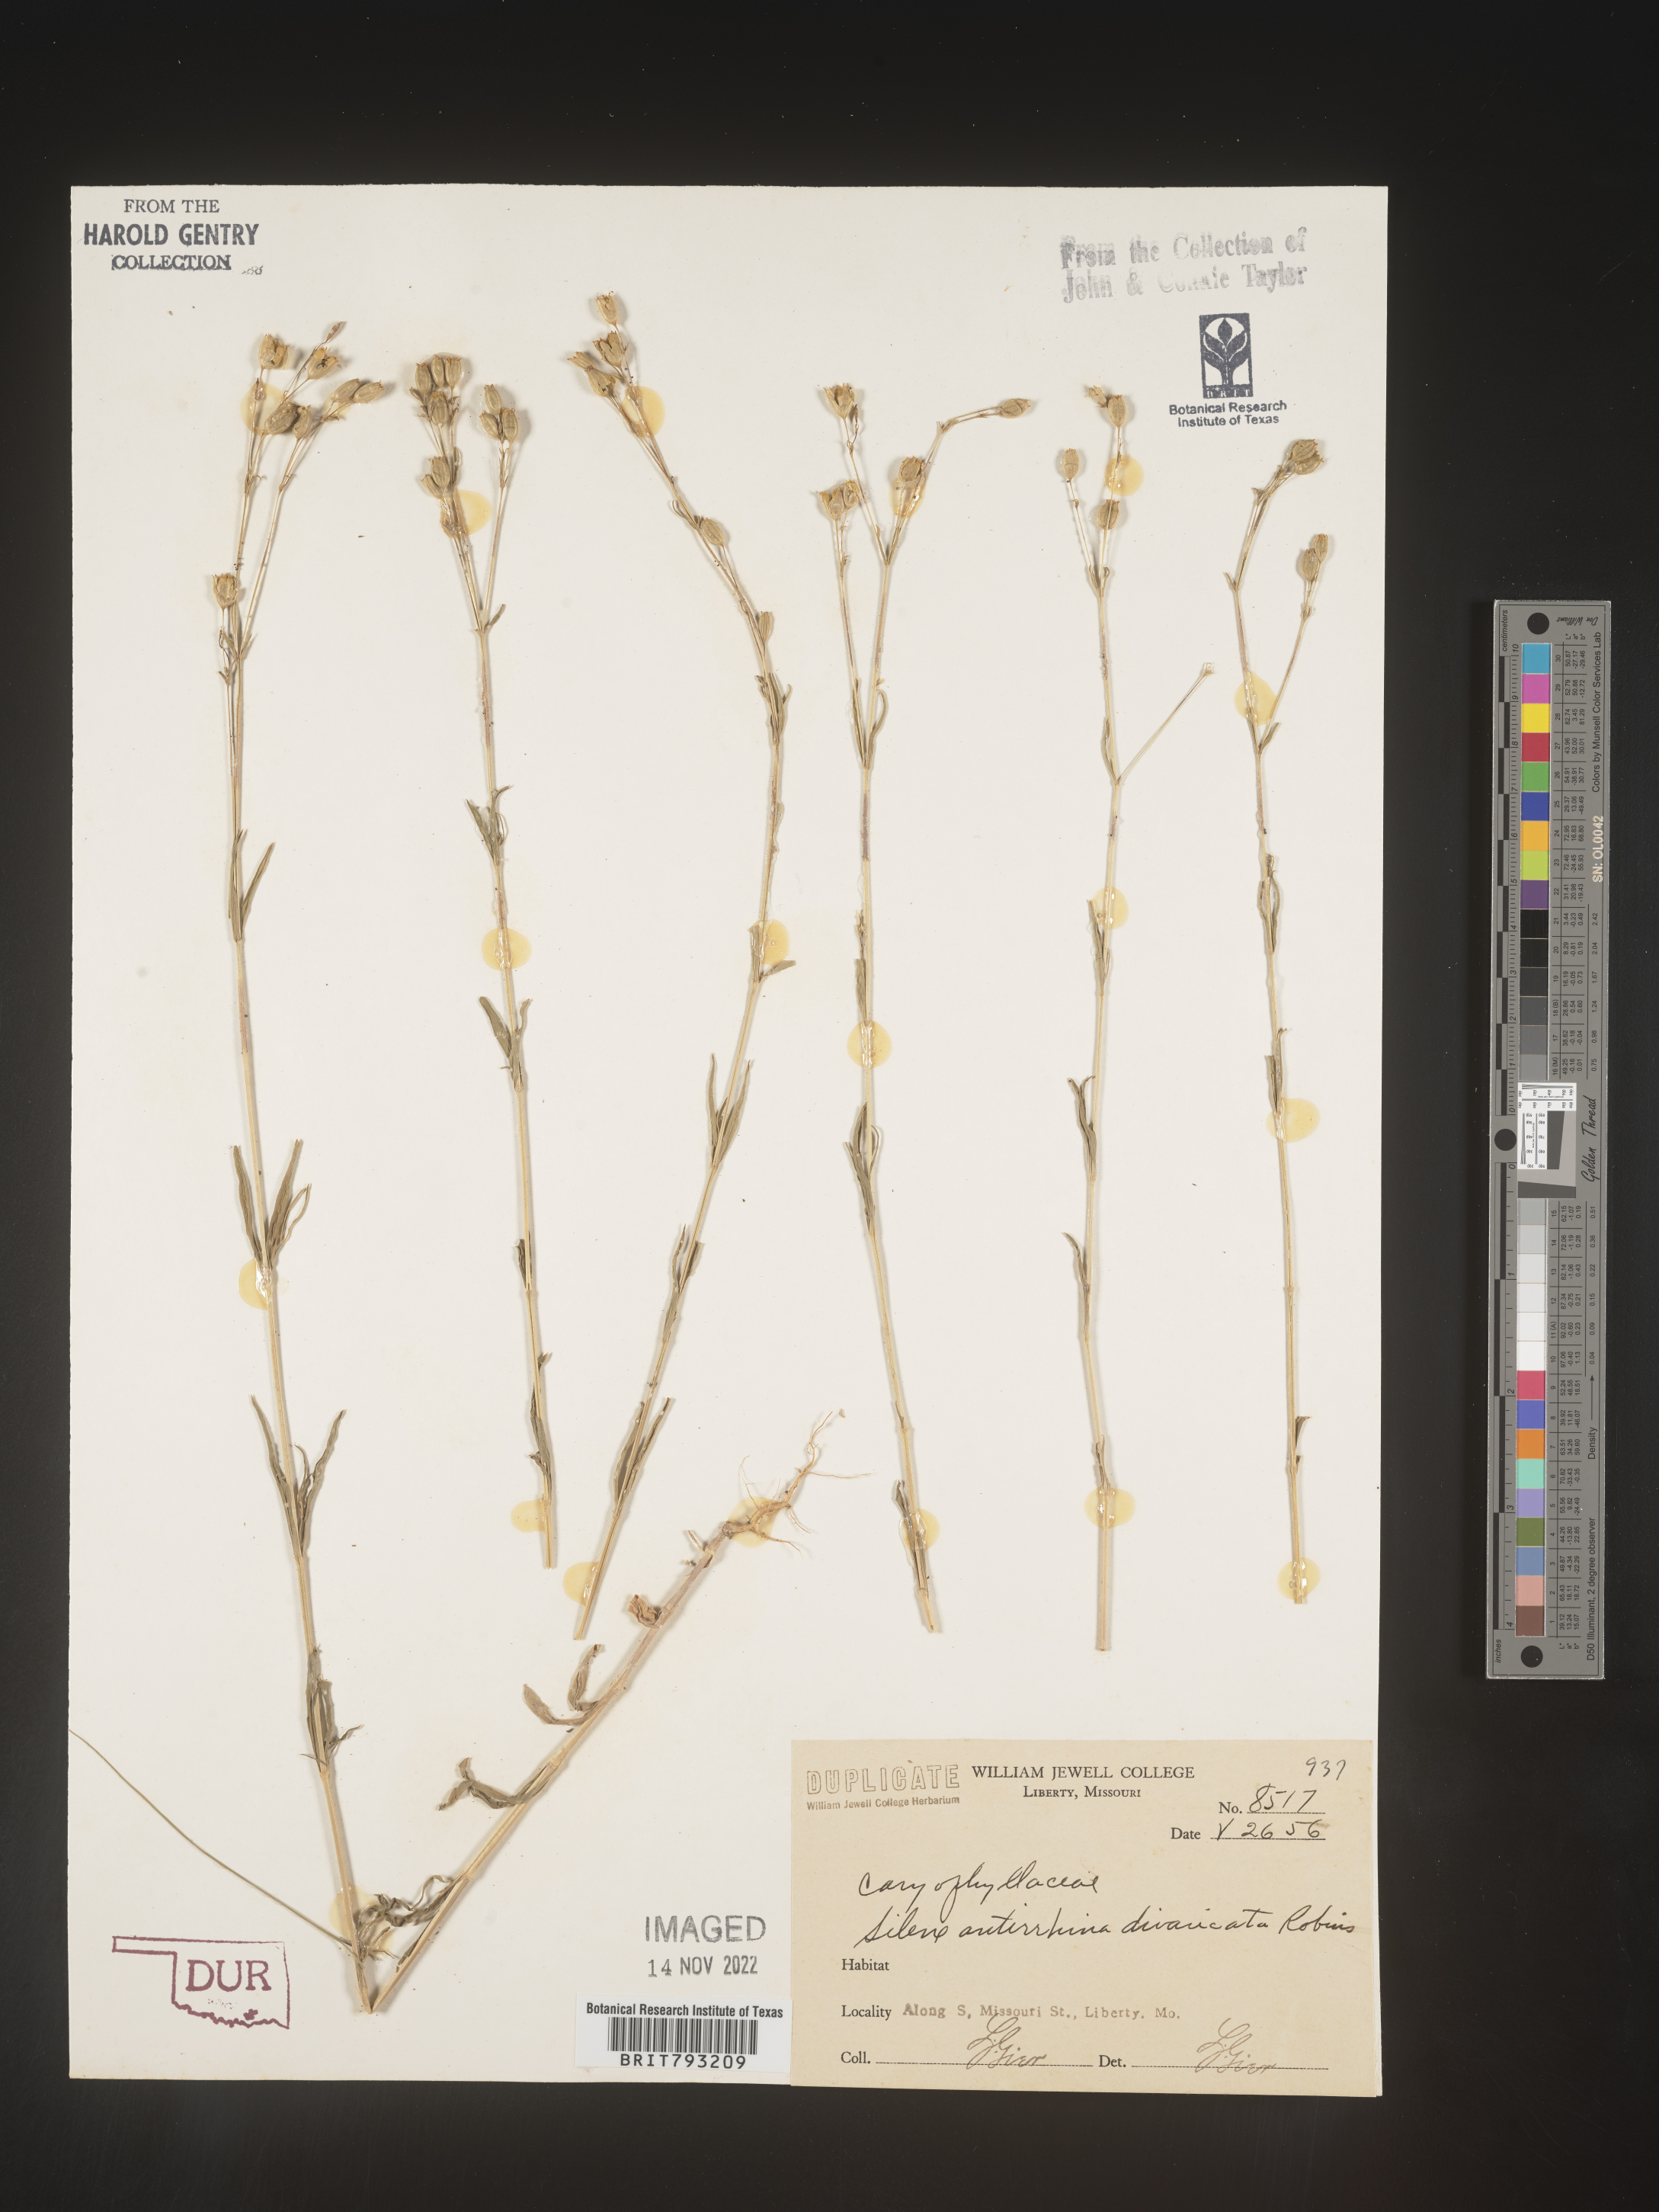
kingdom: Plantae
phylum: Tracheophyta
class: Magnoliopsida
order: Caryophyllales
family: Caryophyllaceae
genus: Silene
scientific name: Silene antirrhina
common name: Sleepy catchfly
